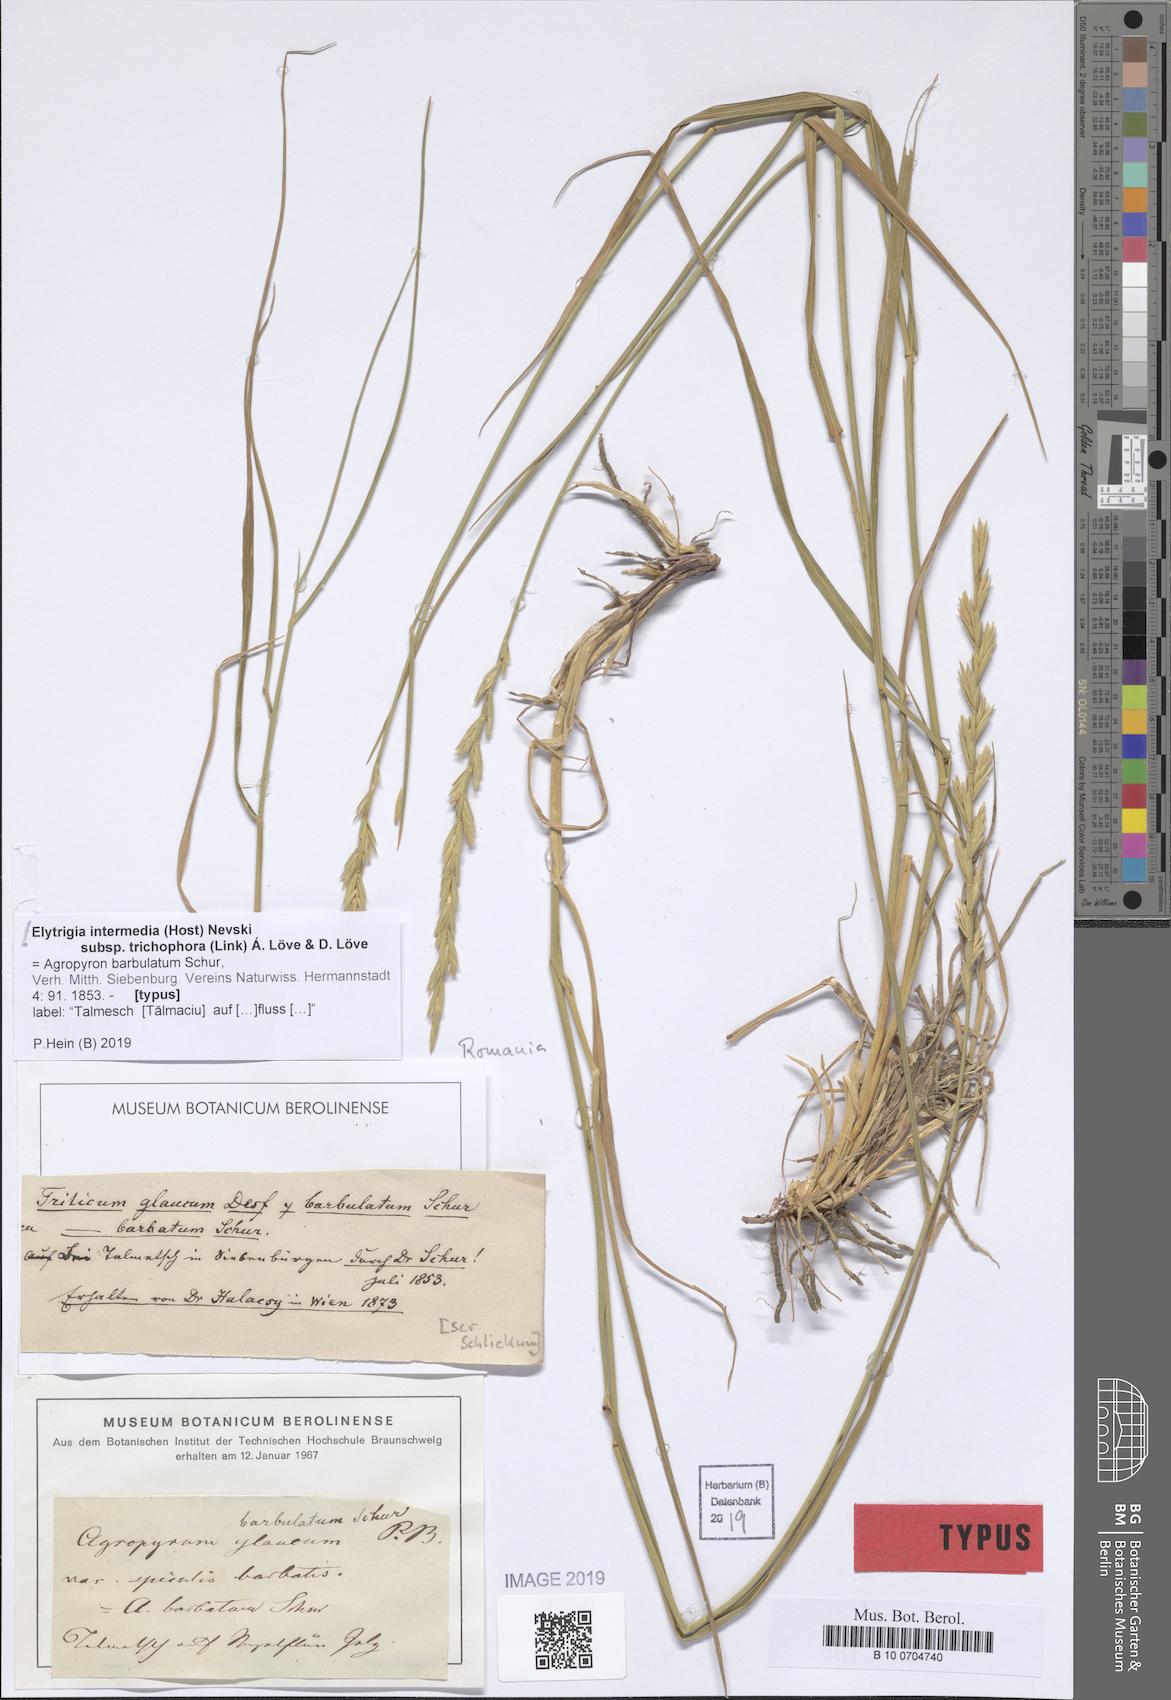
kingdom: Plantae
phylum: Tracheophyta
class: Liliopsida
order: Poales
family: Poaceae
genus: Thinopyrum
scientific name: Thinopyrum intermedium
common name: Intermediate wheatgrass
